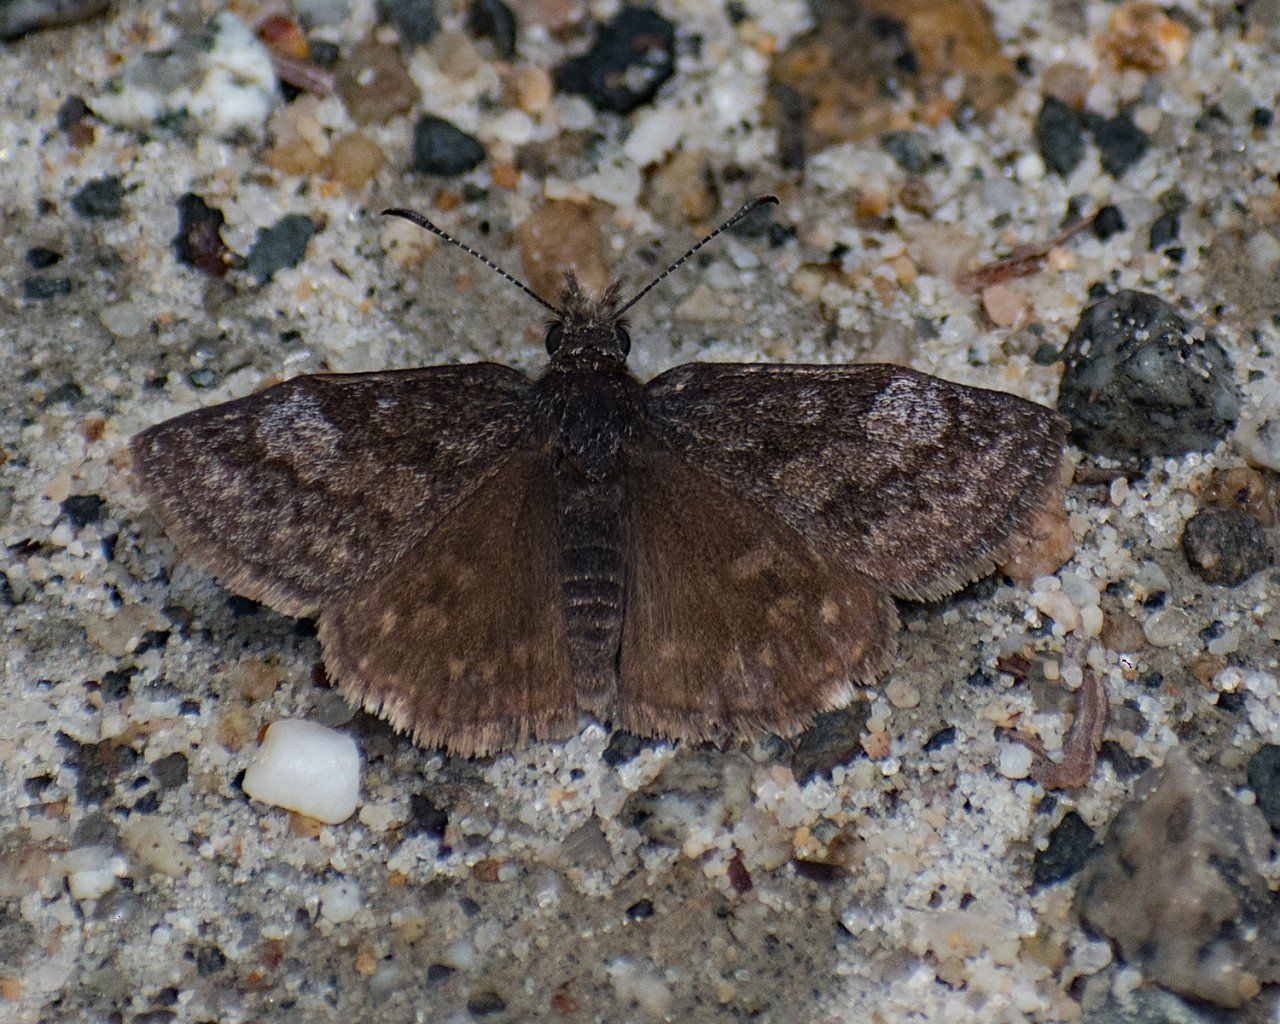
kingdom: Animalia
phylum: Arthropoda
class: Insecta
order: Lepidoptera
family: Hesperiidae
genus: Erynnis
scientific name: Erynnis icelus
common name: Dreamy Duskywing
